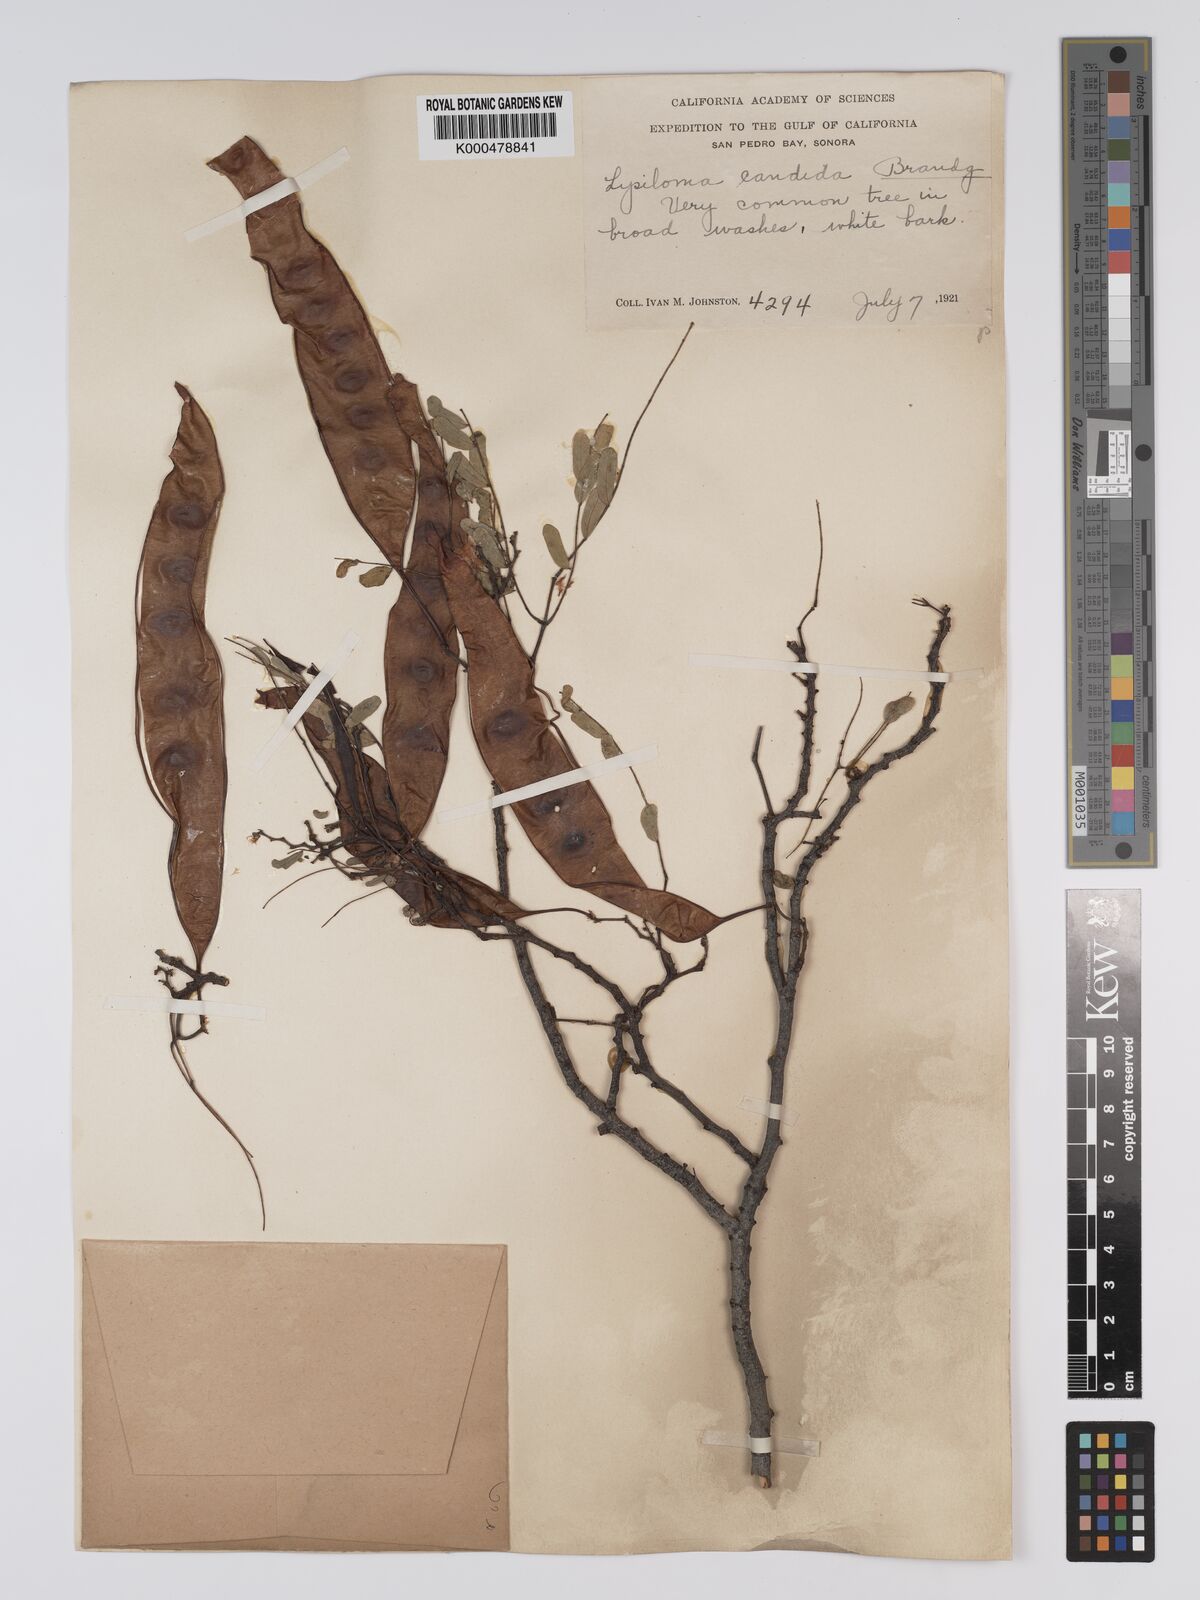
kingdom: Plantae
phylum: Tracheophyta
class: Magnoliopsida
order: Fabales
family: Fabaceae
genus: Lysiloma
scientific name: Lysiloma candidum
